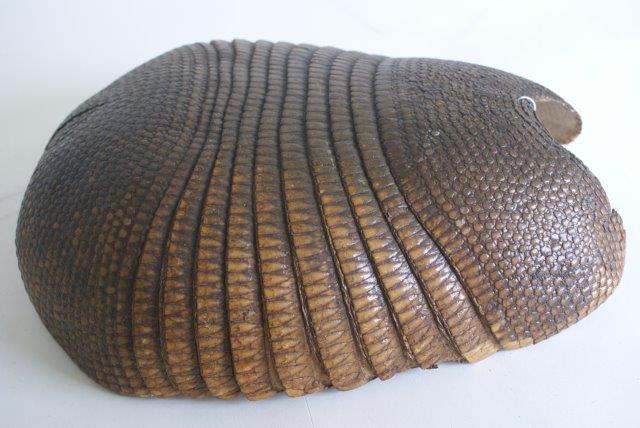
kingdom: Animalia
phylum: Chordata
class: Mammalia
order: Cingulata
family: Dasypodidae
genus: Dasypus
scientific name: Dasypus novemcinctus
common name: Nine-banded Armadillo
